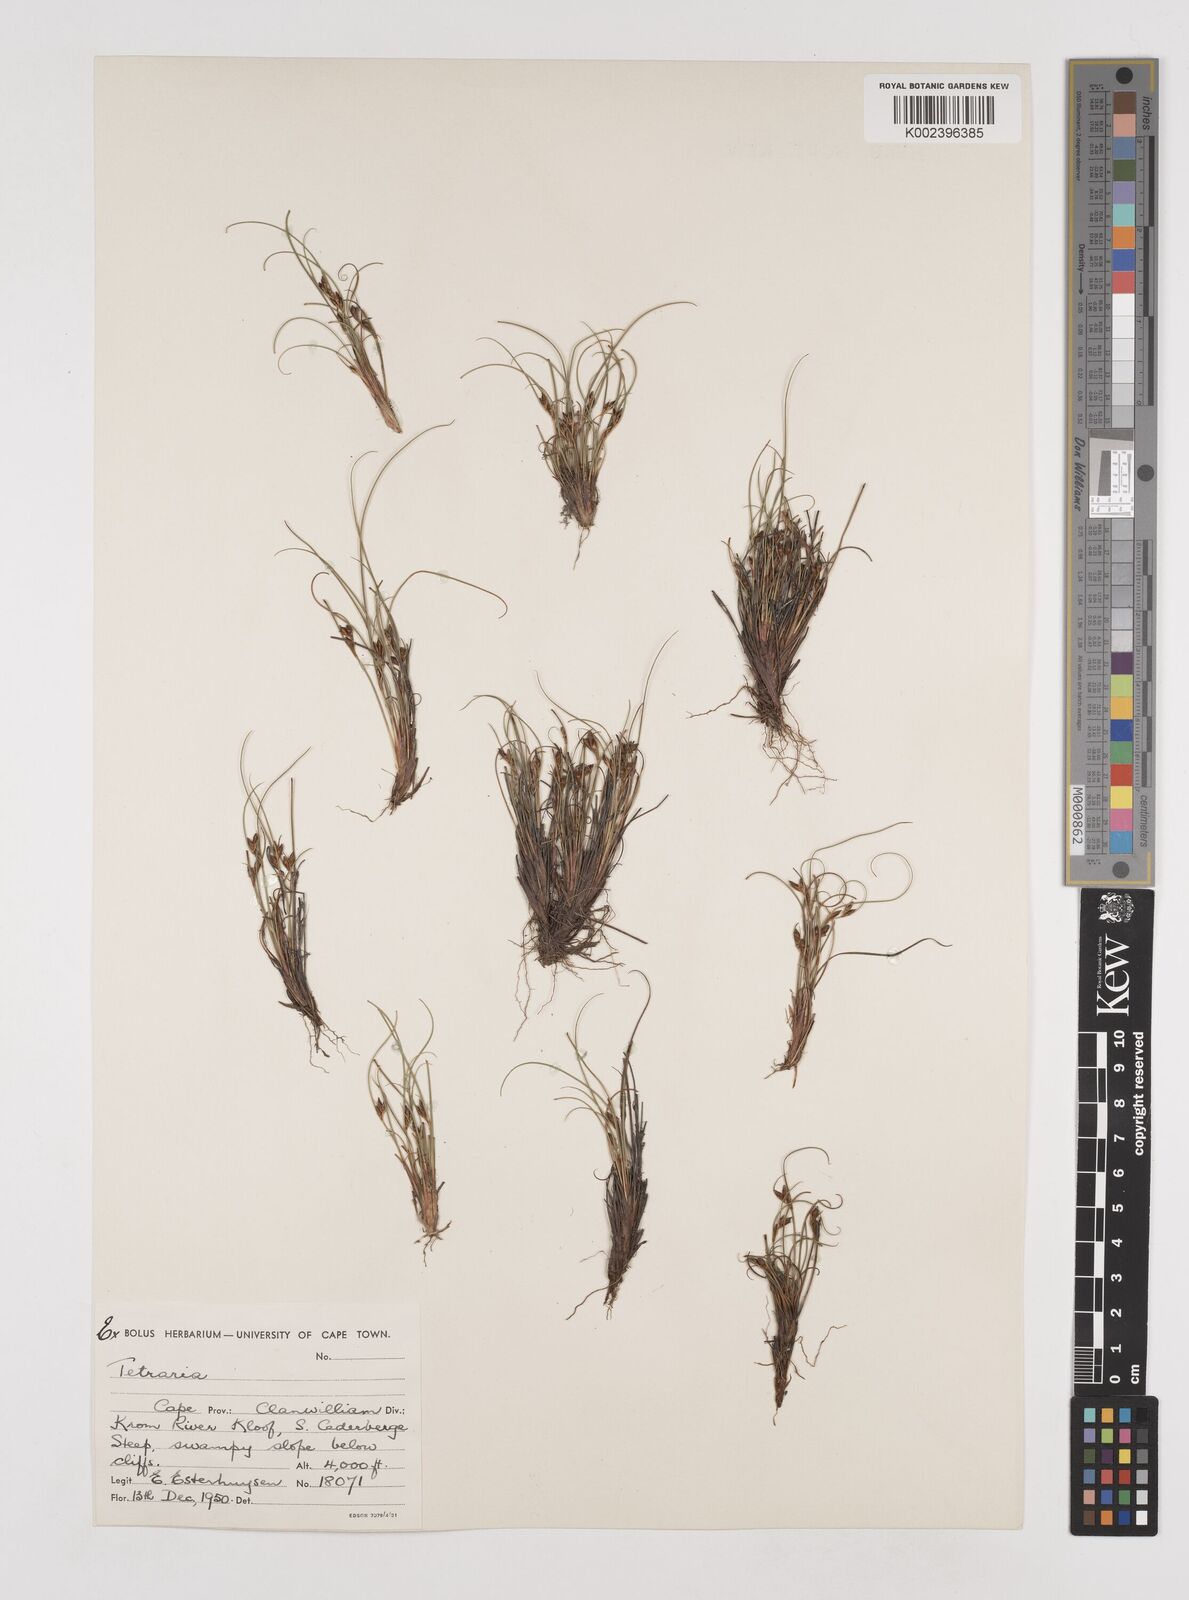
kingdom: Plantae
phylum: Tracheophyta
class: Liliopsida
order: Poales
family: Cyperaceae
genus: Tetraria
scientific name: Tetraria
